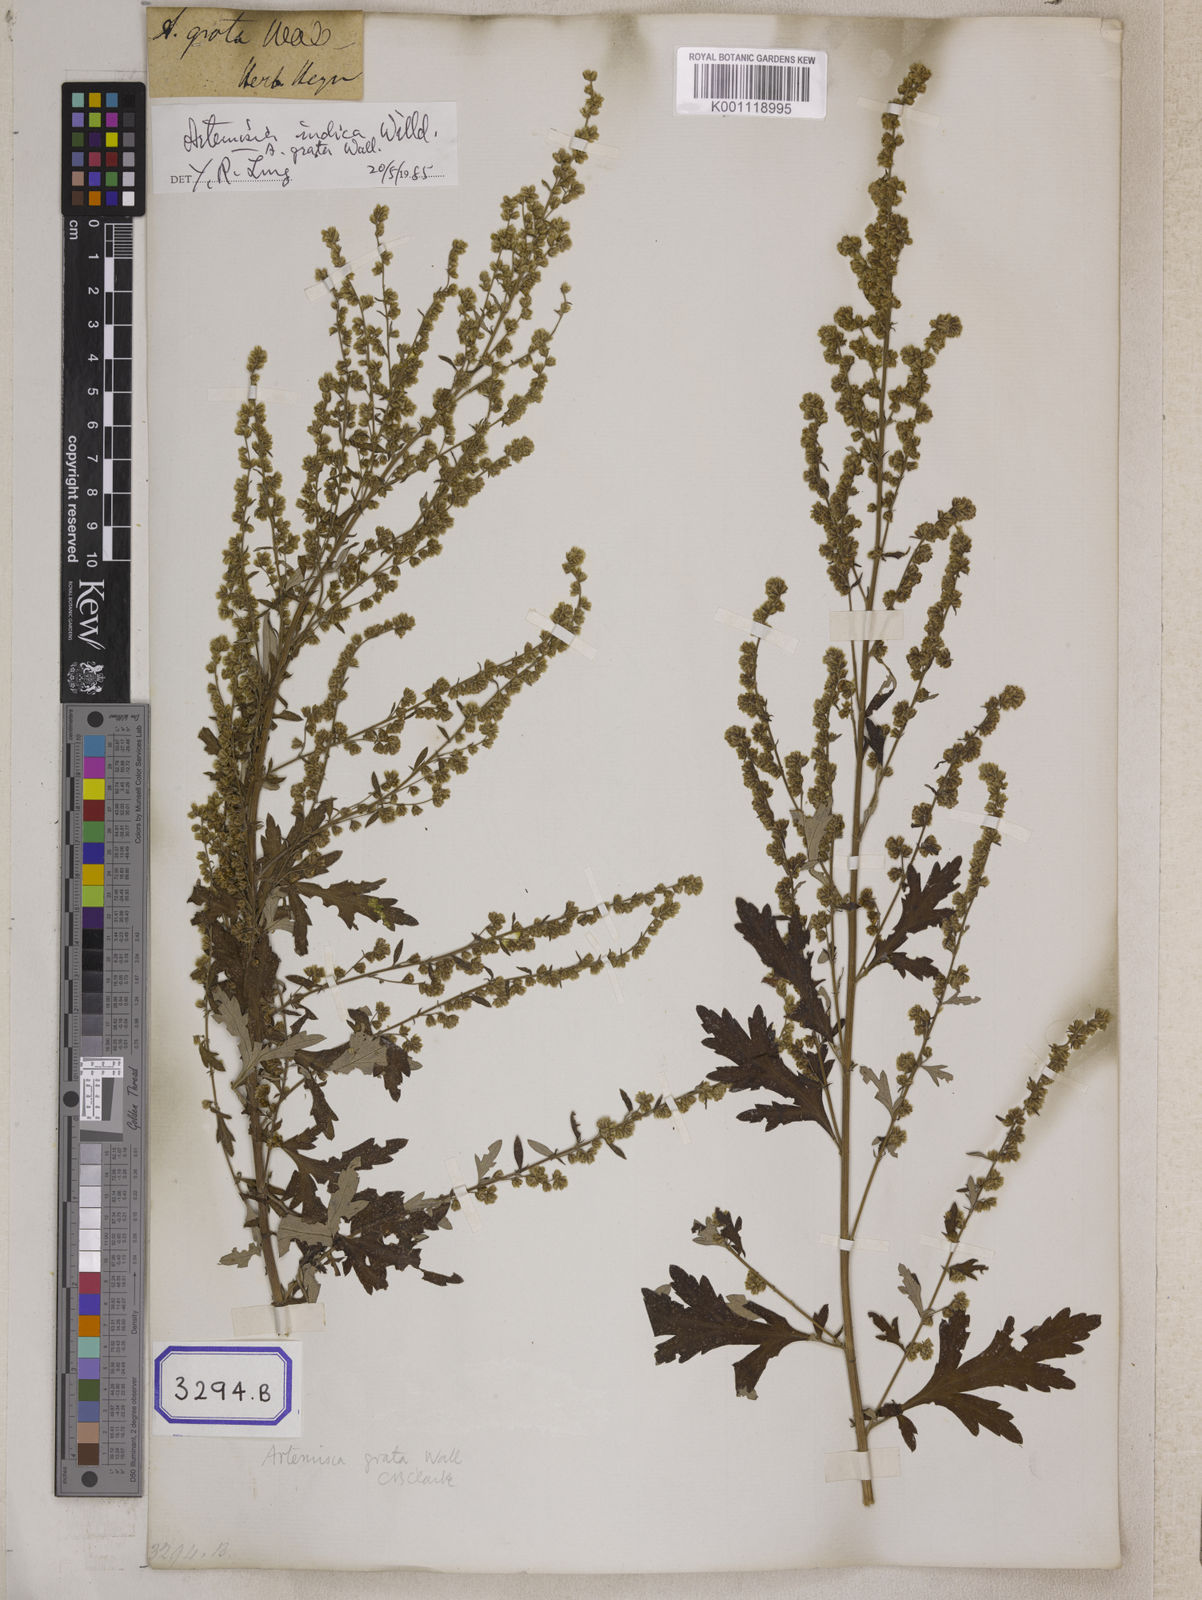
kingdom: Plantae
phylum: Tracheophyta
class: Magnoliopsida
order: Asterales
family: Asteraceae
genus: Artemisia
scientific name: Artemisia indica
